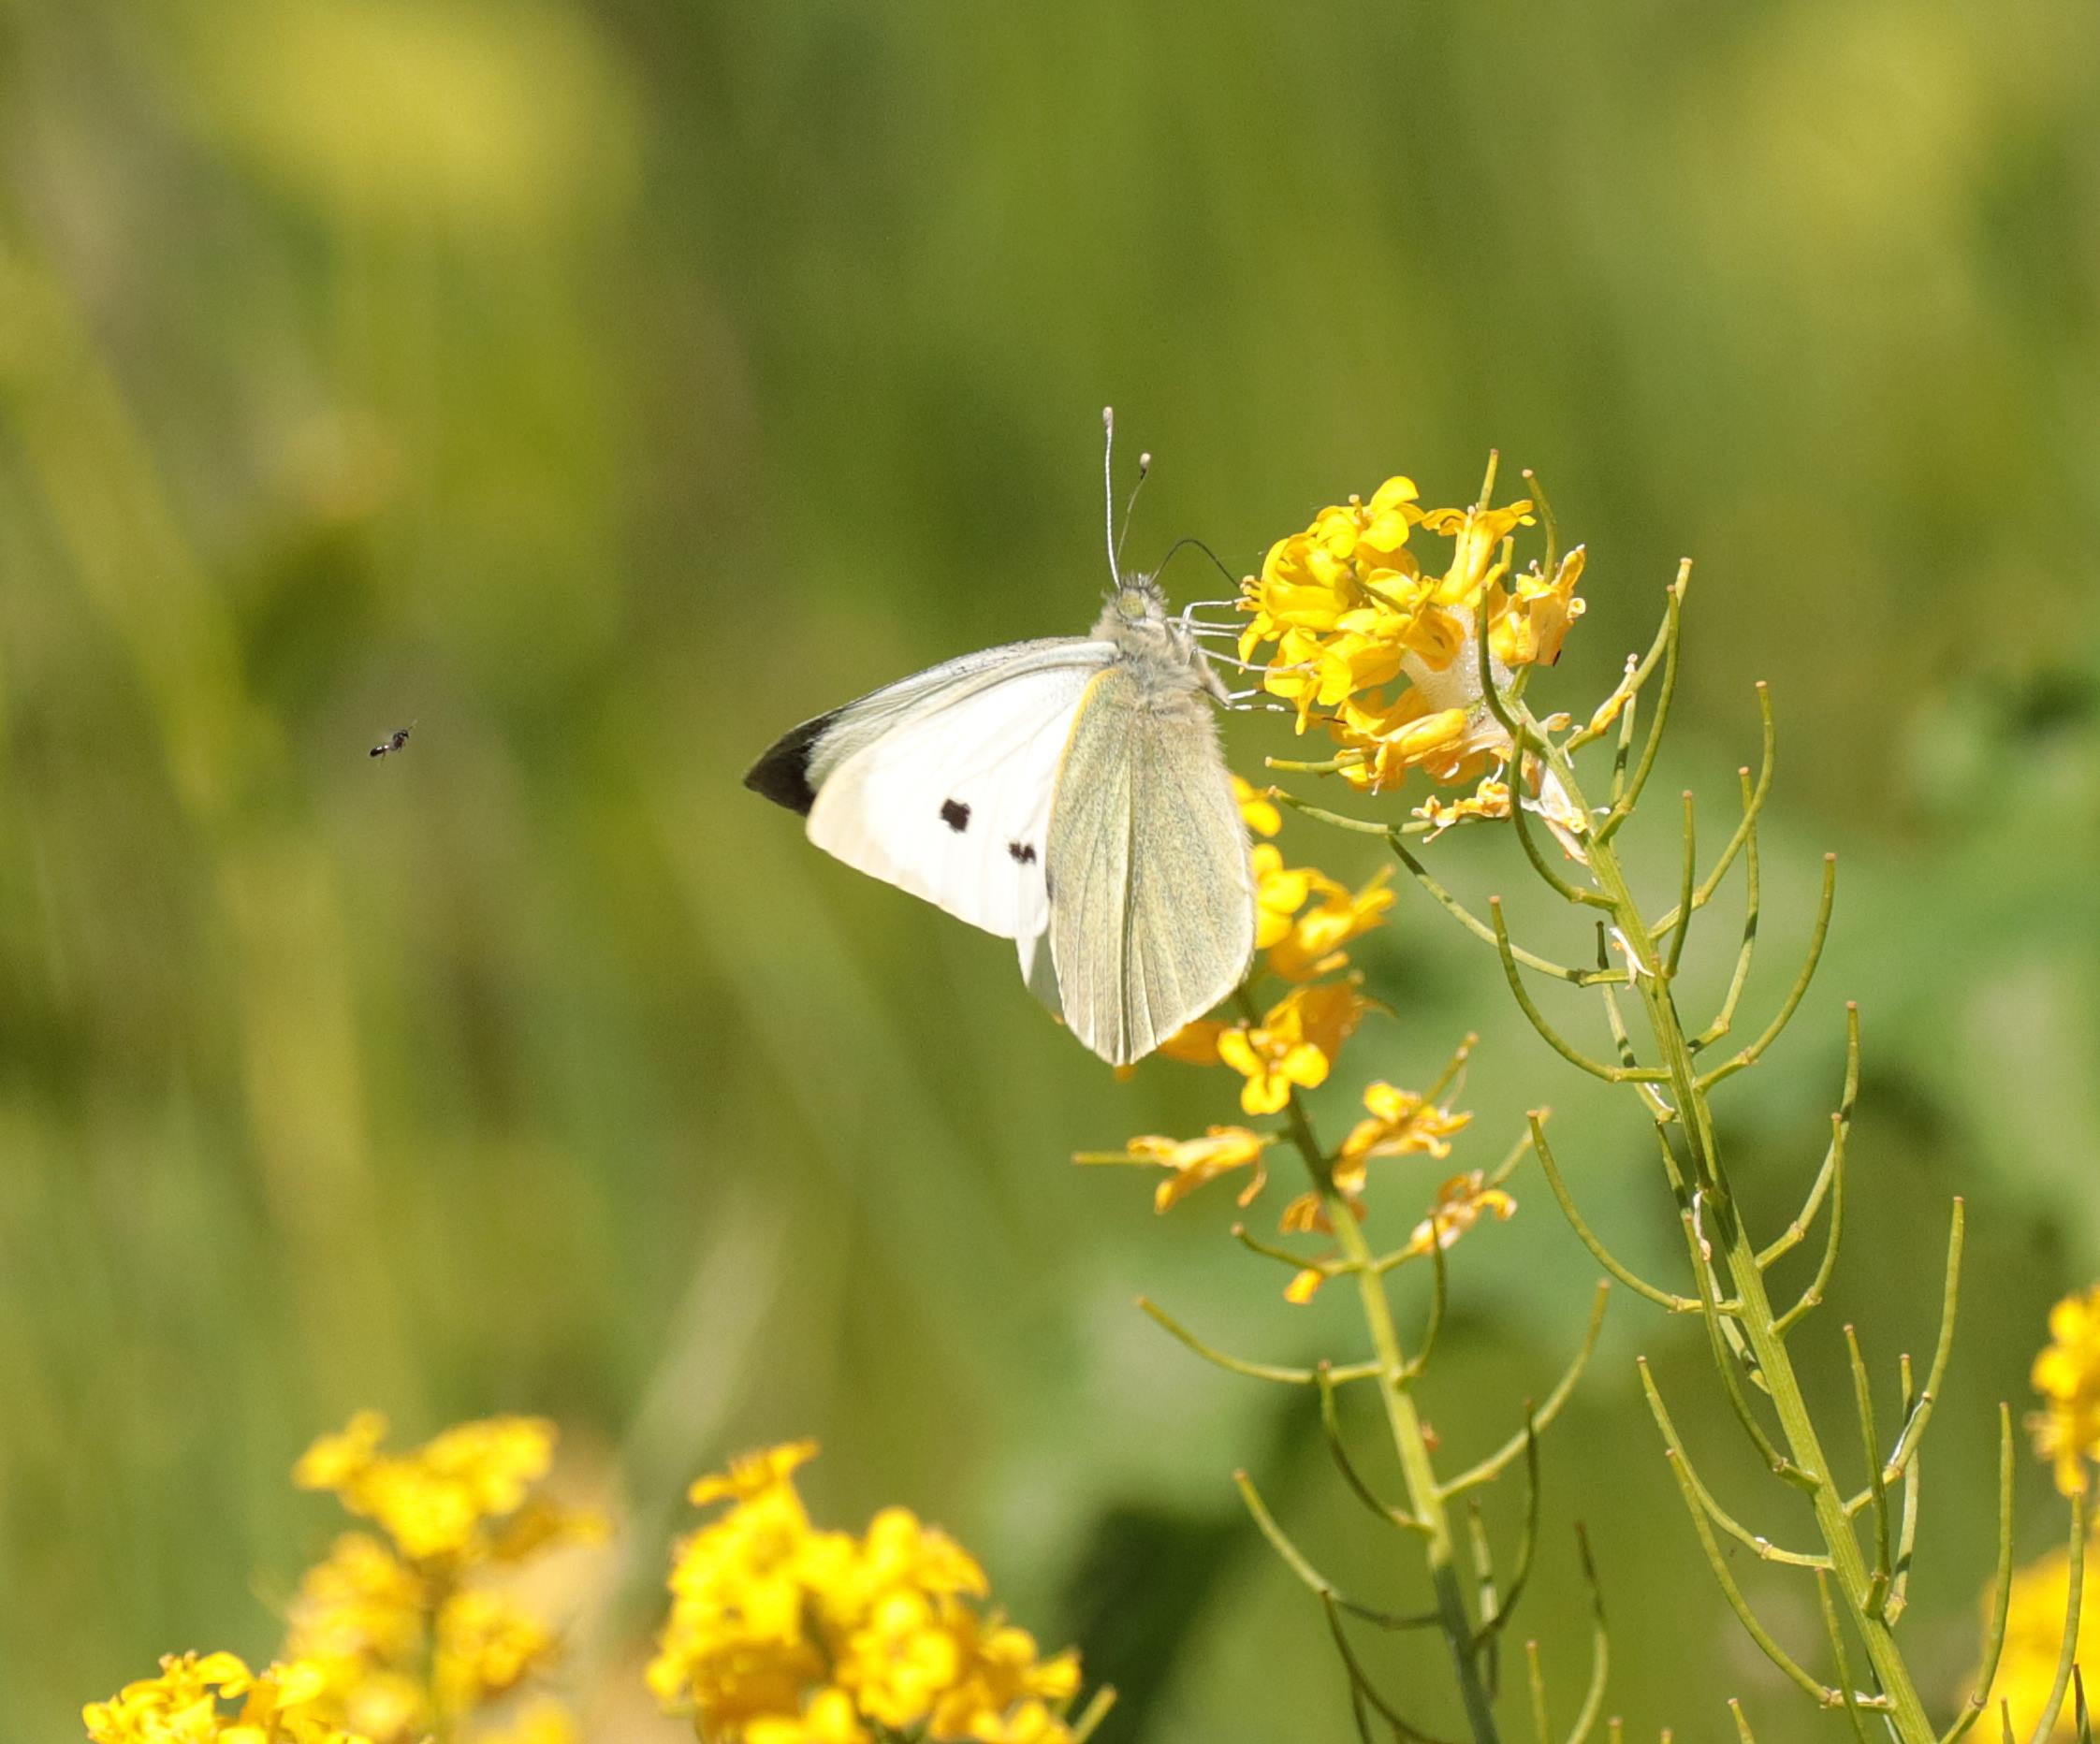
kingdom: Animalia
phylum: Arthropoda
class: Insecta
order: Lepidoptera
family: Pieridae
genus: Pieris
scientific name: Pieris brassicae
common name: Stor kålsommerfugl
